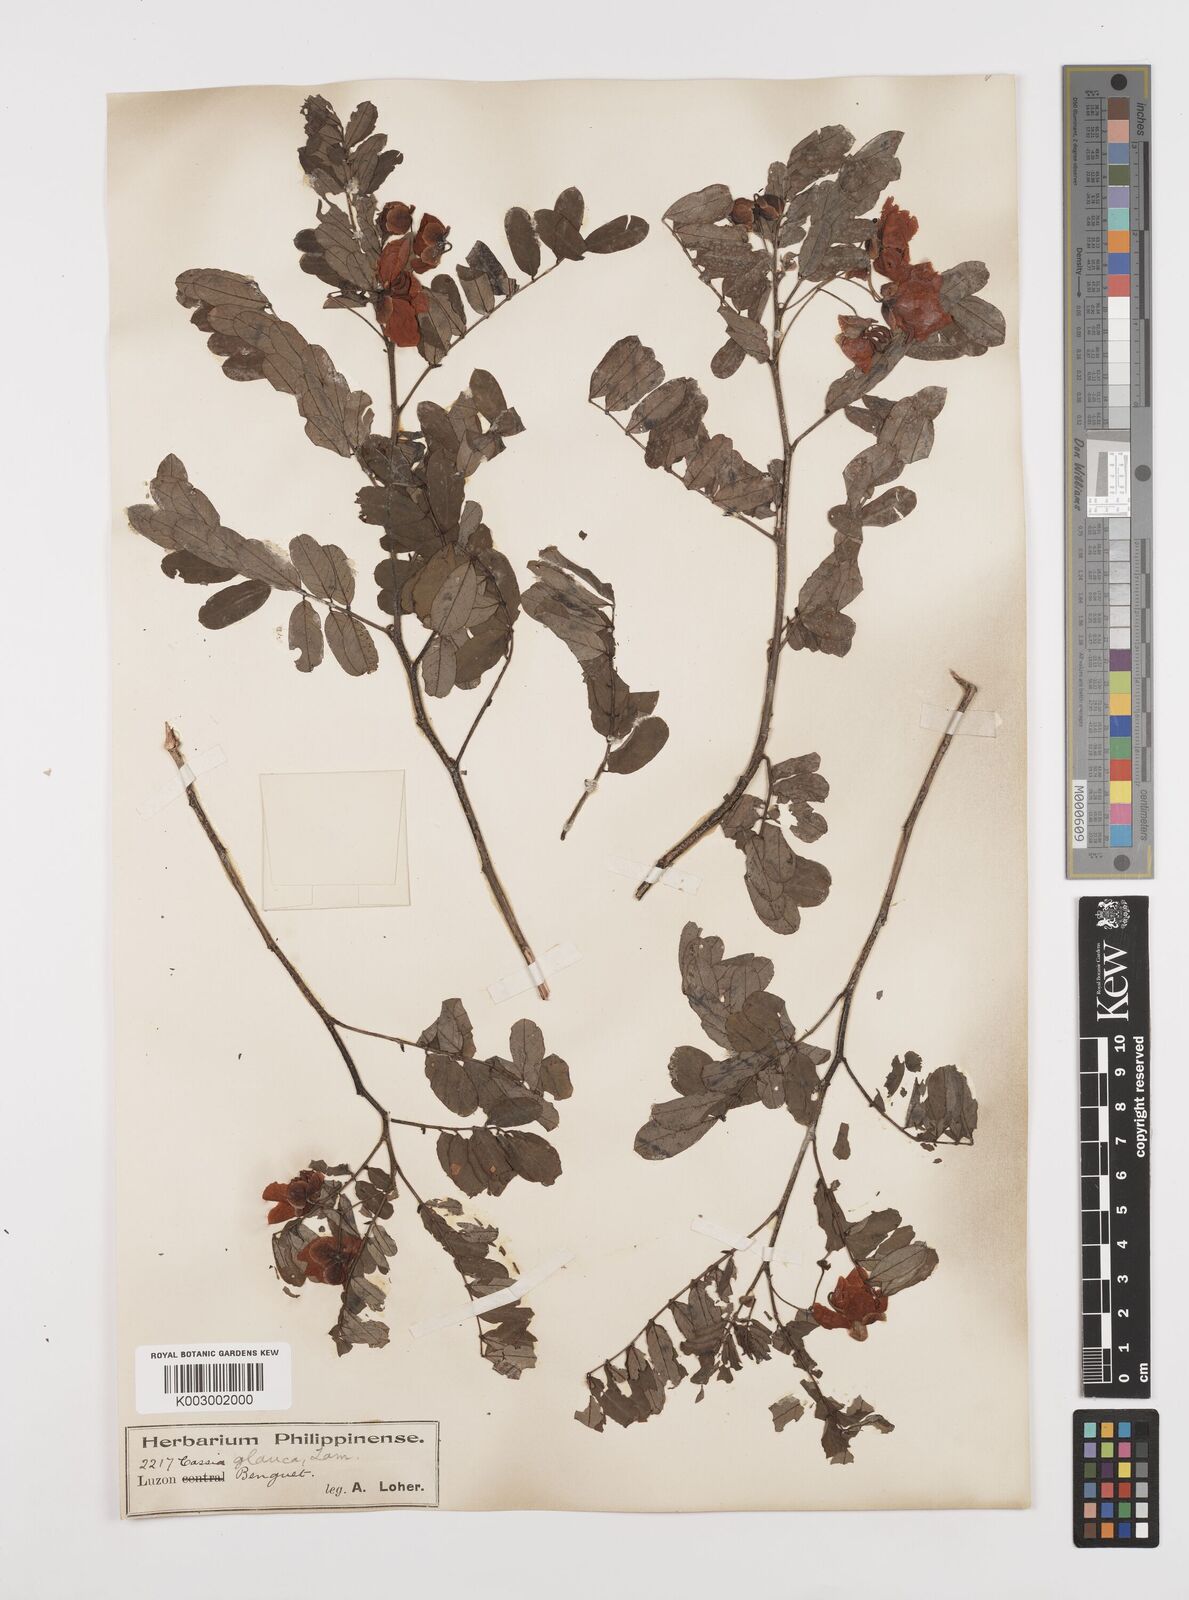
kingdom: Plantae
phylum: Tracheophyta
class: Magnoliopsida
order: Fabales
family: Fabaceae
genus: Senna
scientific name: Senna surattensis
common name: Glossy shower
